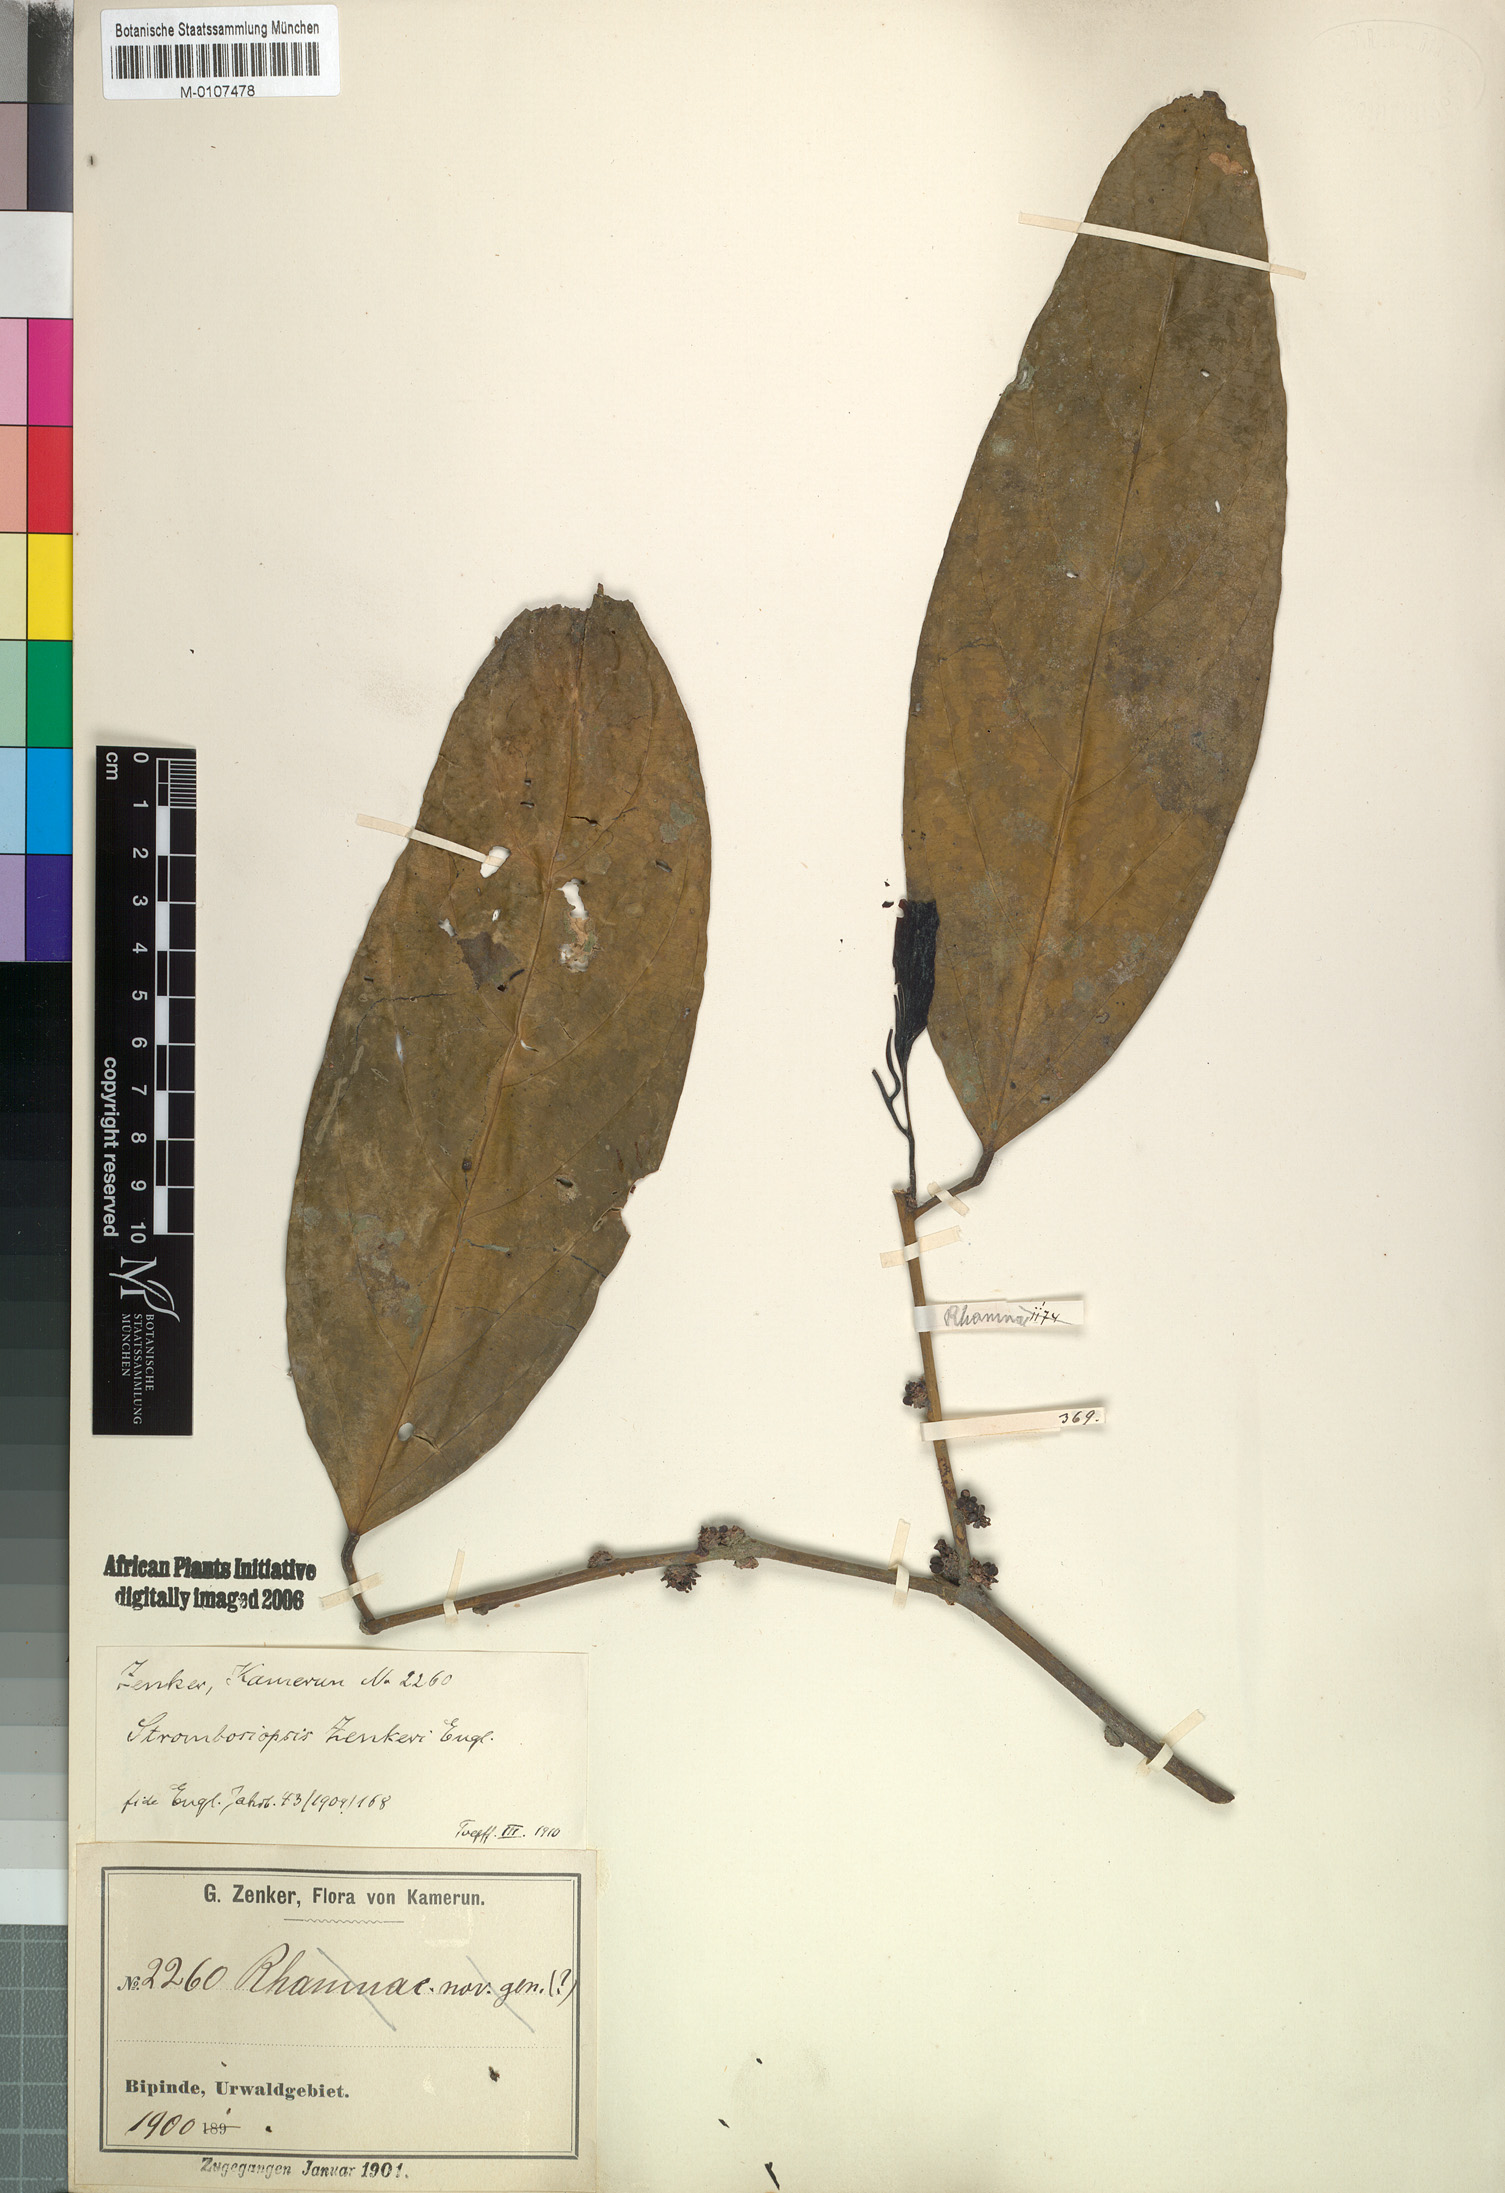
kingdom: Plantae
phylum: Tracheophyta
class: Magnoliopsida
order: Santalales
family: Strombosiaceae
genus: Diogoa
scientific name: Diogoa zenkeri
